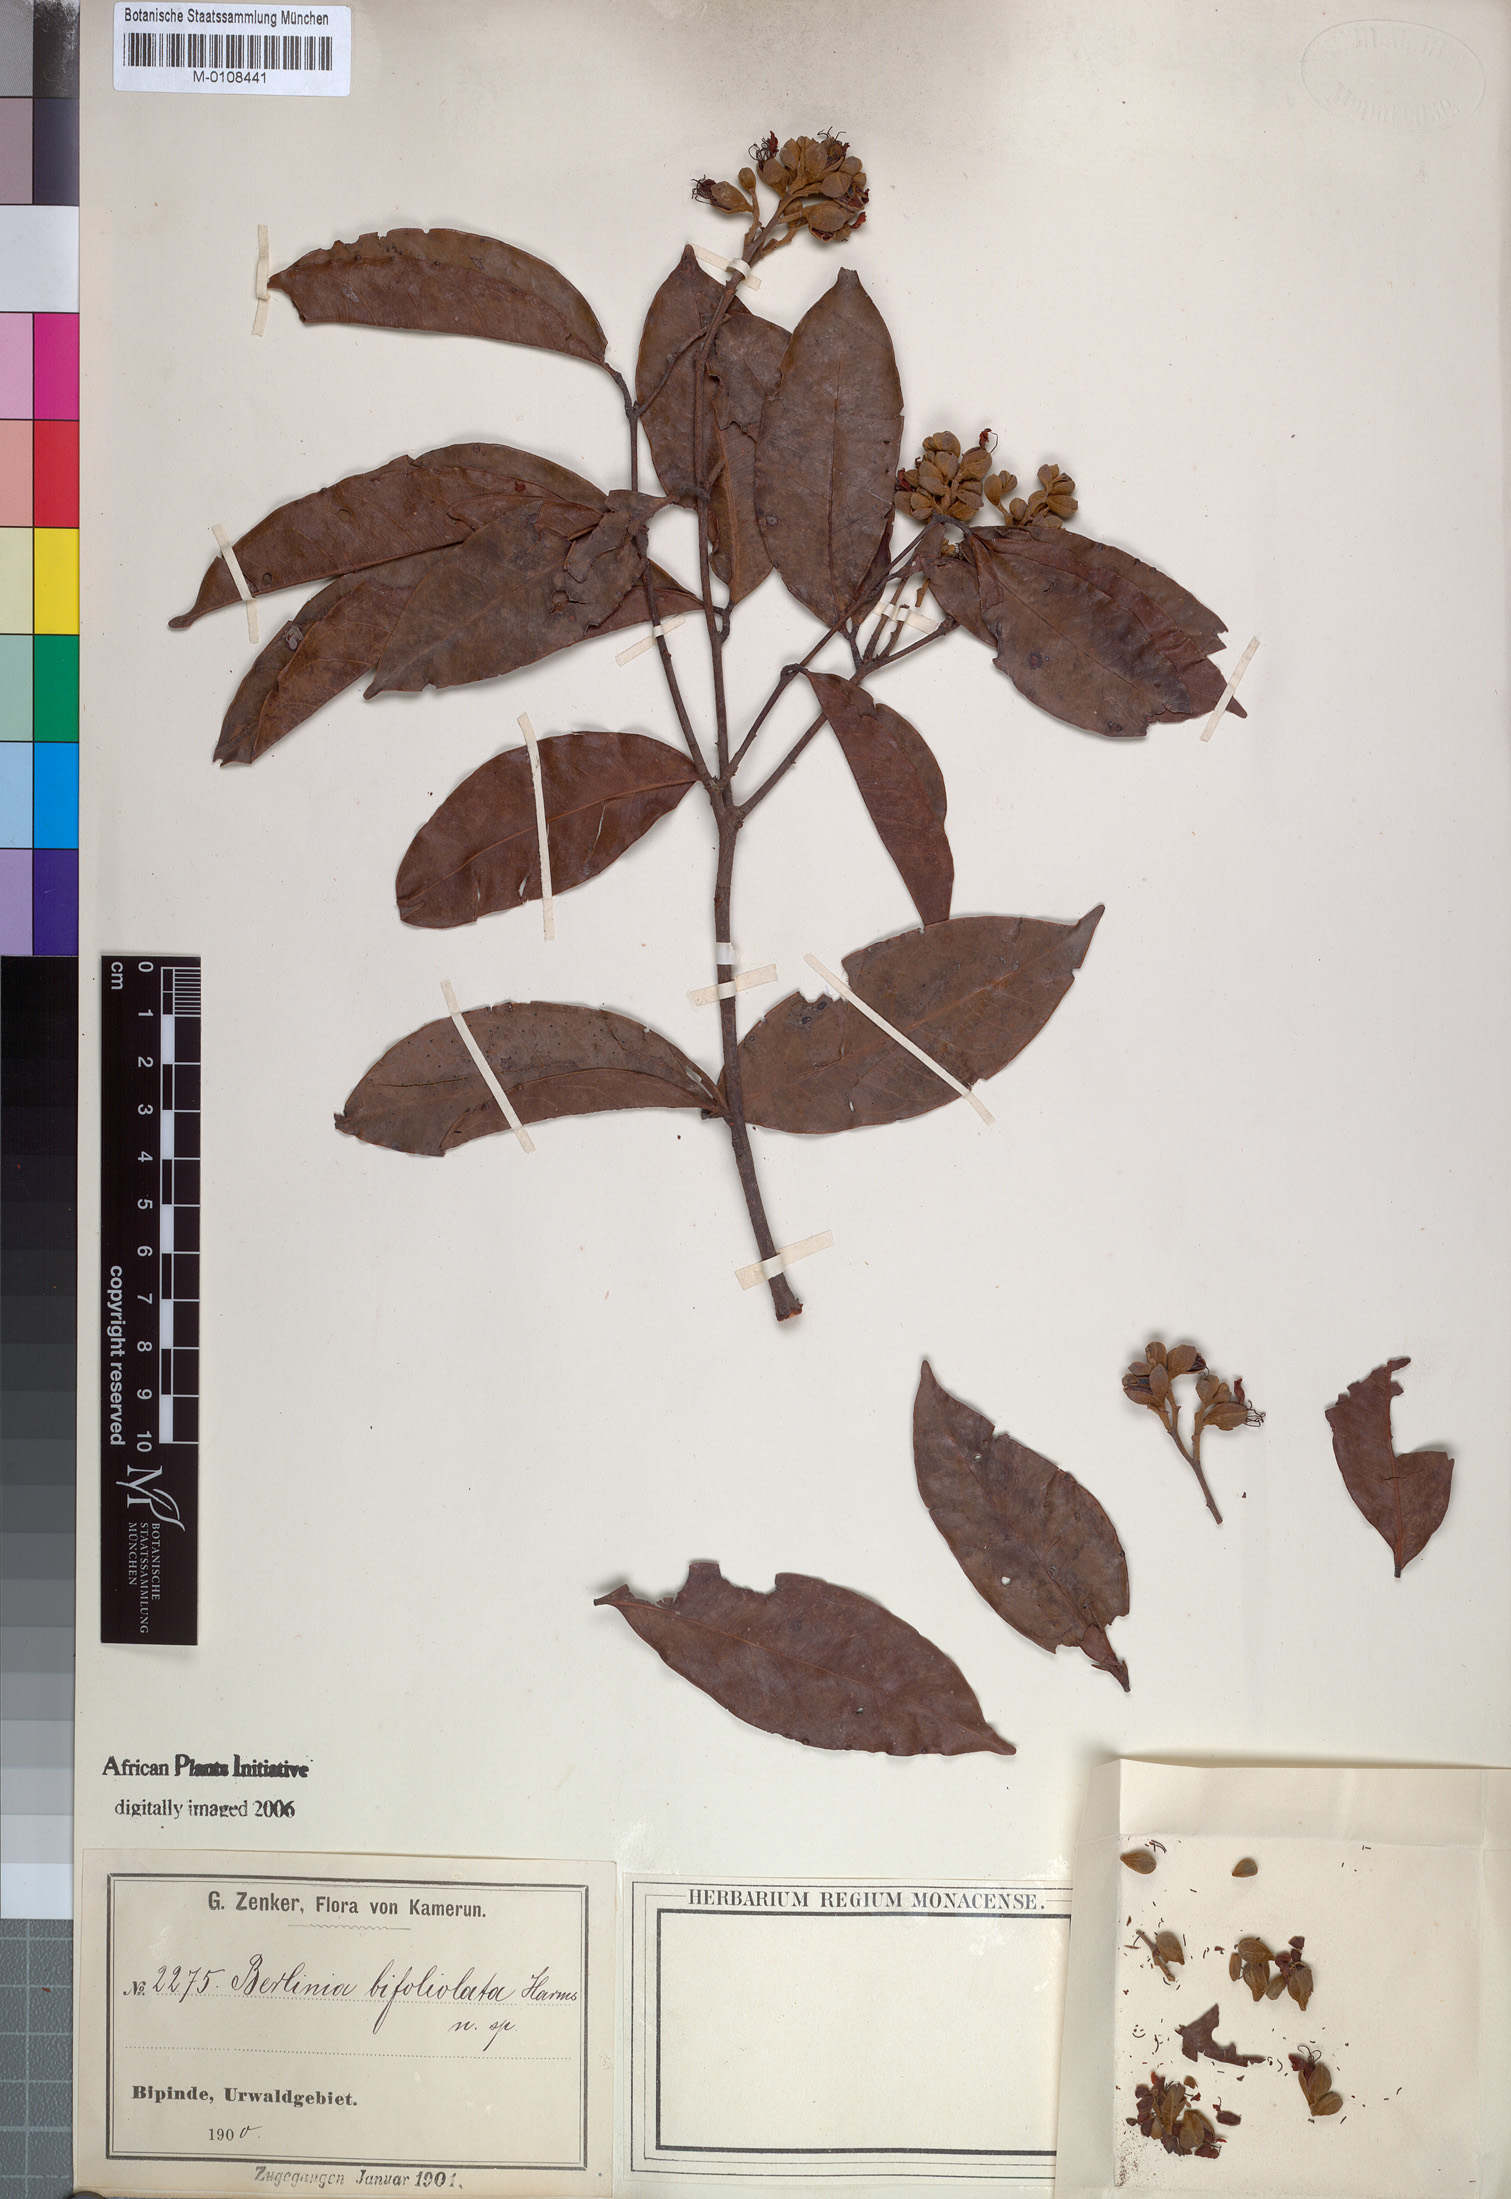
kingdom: Plantae
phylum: Tracheophyta
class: Magnoliopsida
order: Fabales
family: Fabaceae
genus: Tetraberlinia
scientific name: Tetraberlinia bifoliolata
